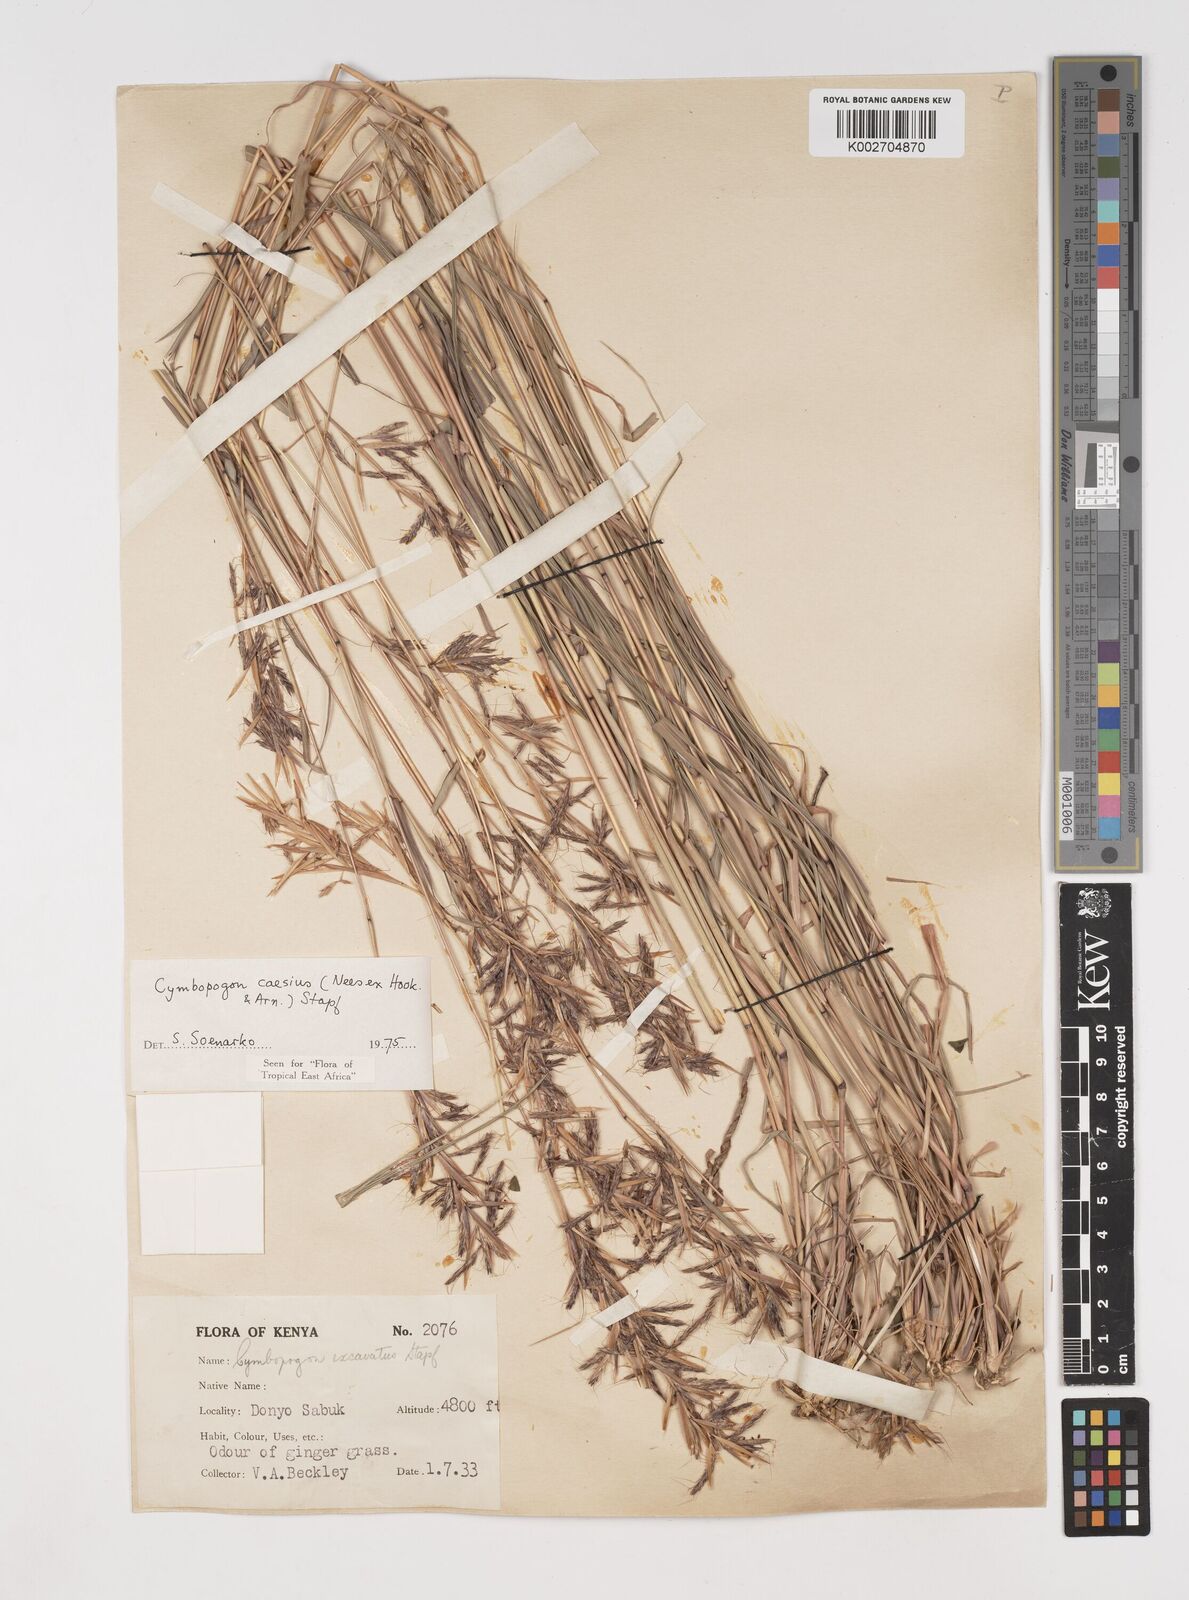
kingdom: Plantae
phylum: Tracheophyta
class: Liliopsida
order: Poales
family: Poaceae
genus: Cymbopogon
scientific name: Cymbopogon caesius
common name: Kachi grass
